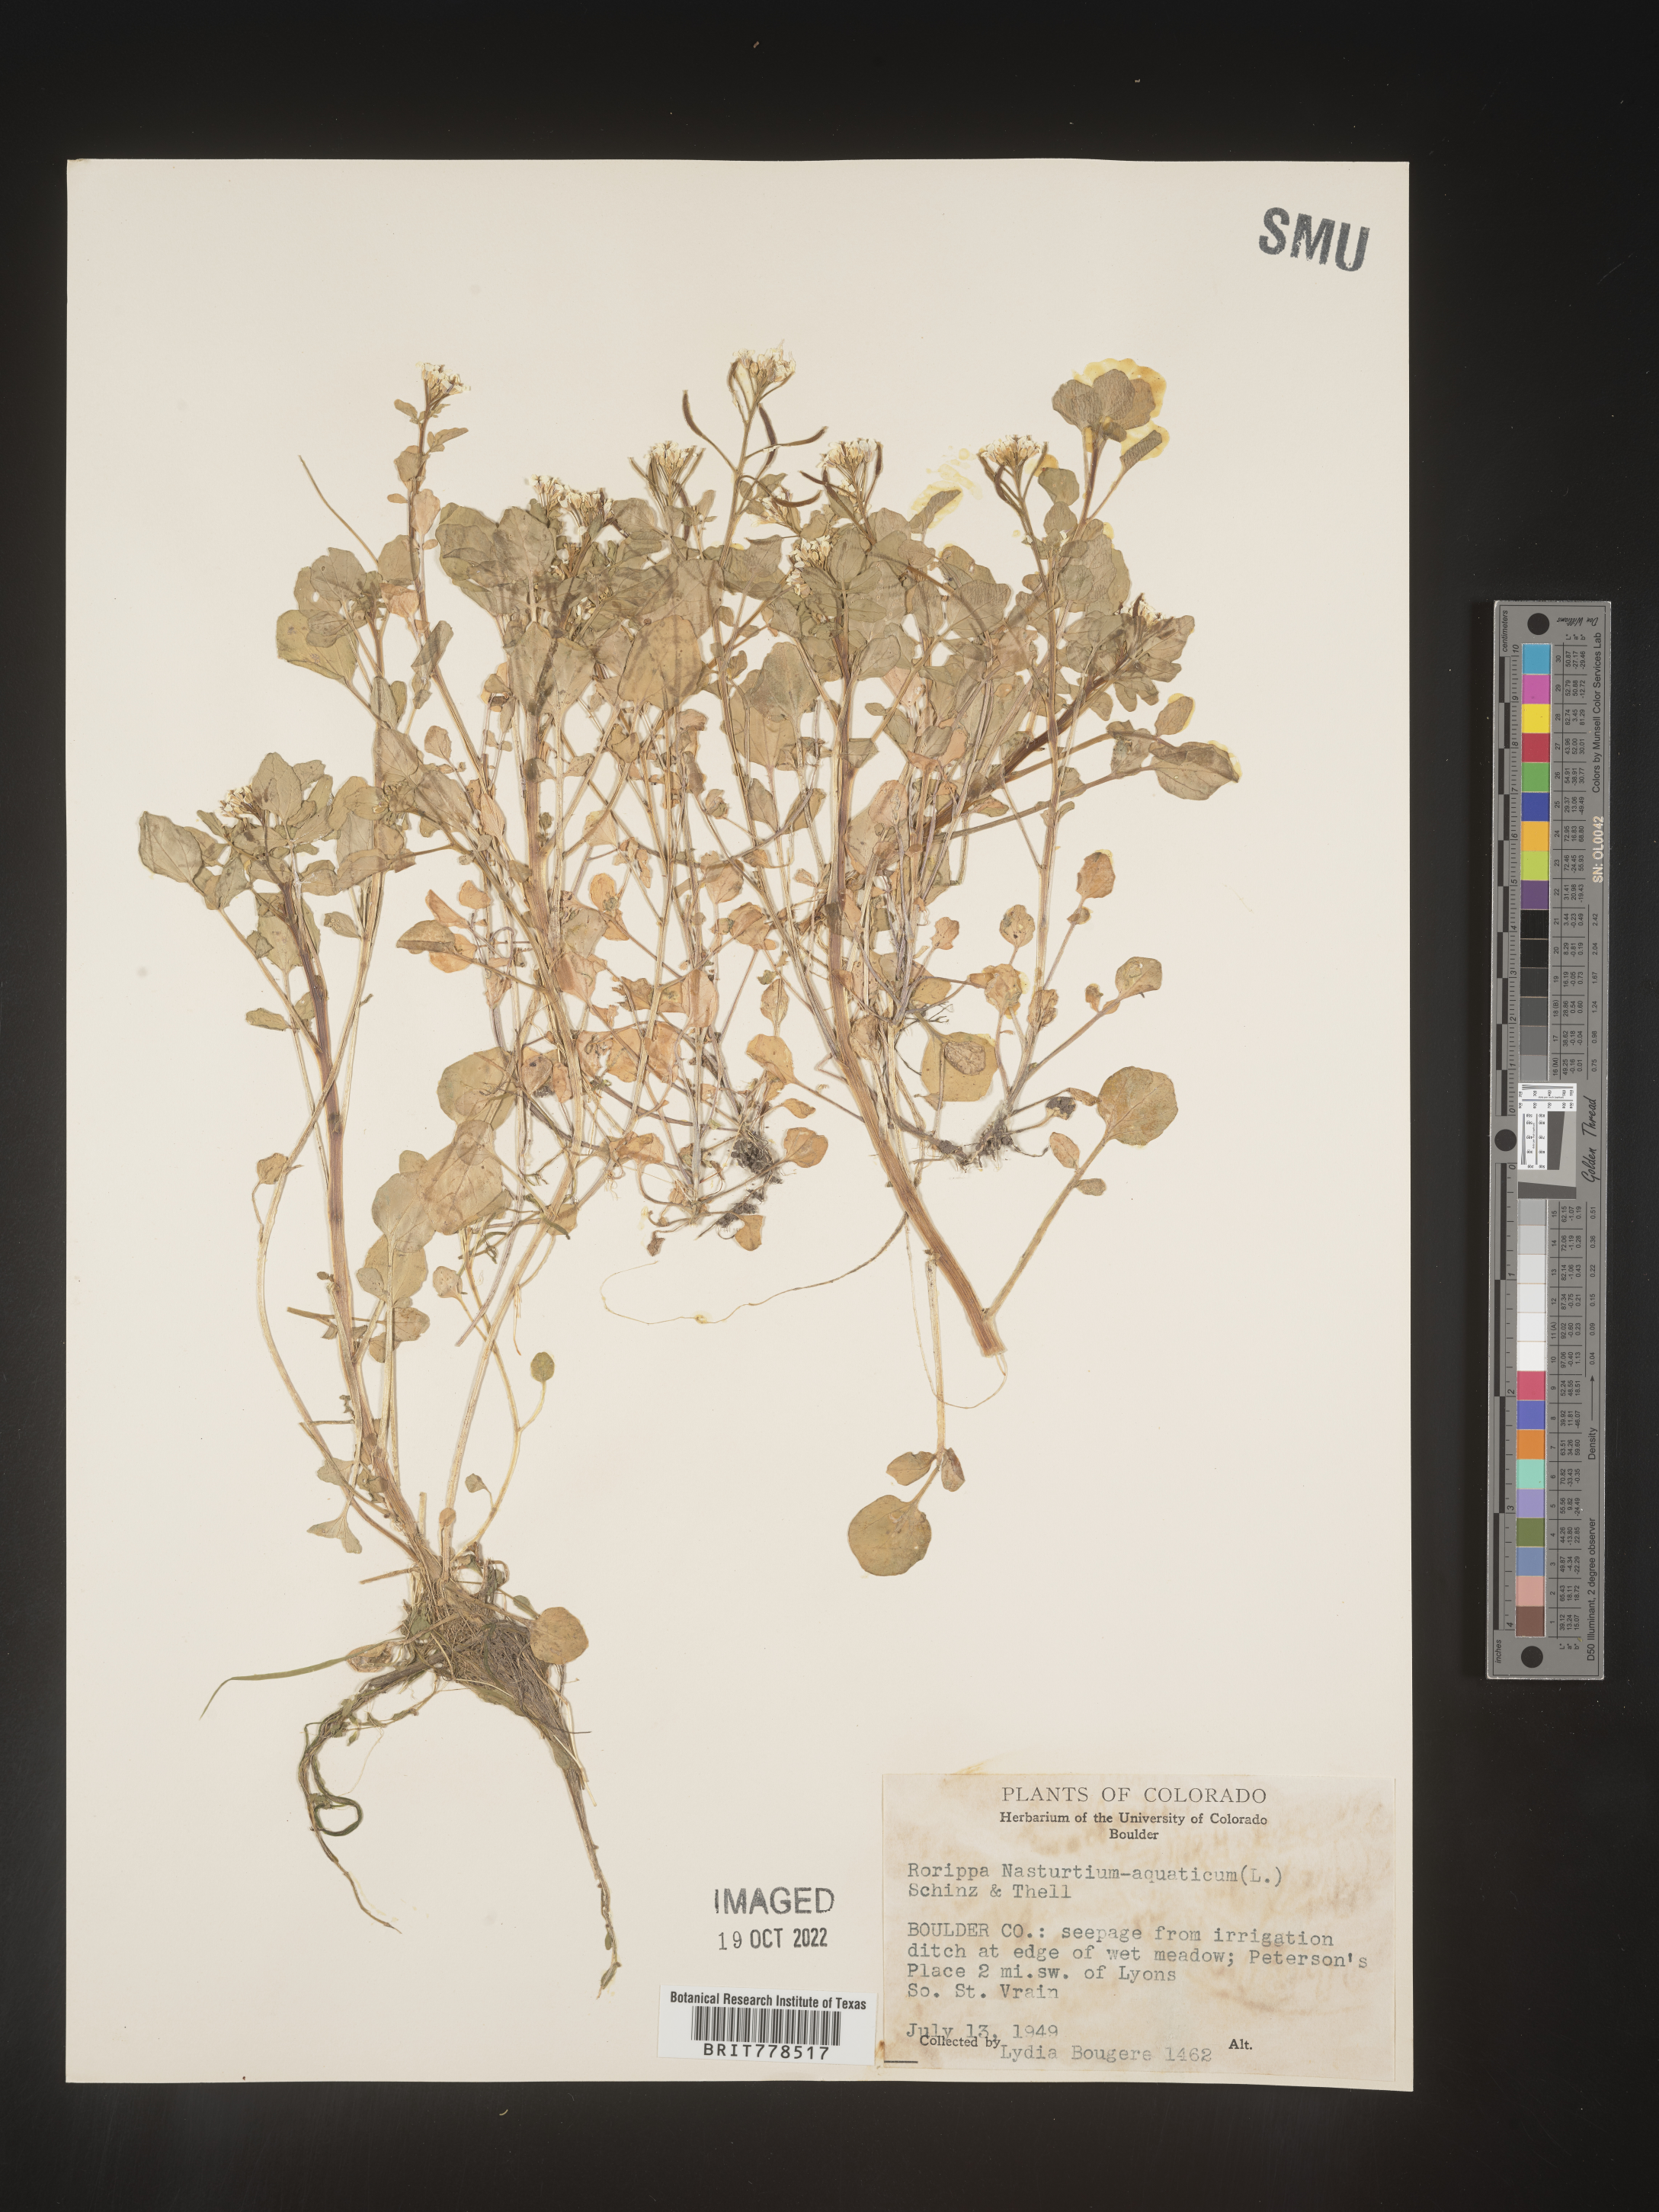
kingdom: Plantae
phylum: Tracheophyta
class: Magnoliopsida
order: Brassicales
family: Brassicaceae
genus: Nasturtium
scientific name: Nasturtium officinale
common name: Watercress
